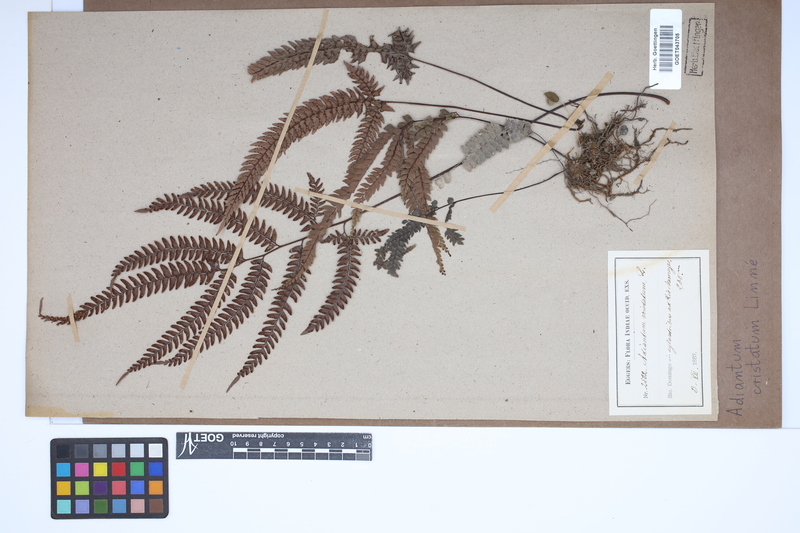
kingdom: Plantae
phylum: Tracheophyta
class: Polypodiopsida
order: Polypodiales
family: Pteridaceae
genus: Adiantum
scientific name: Adiantum pyramidale
